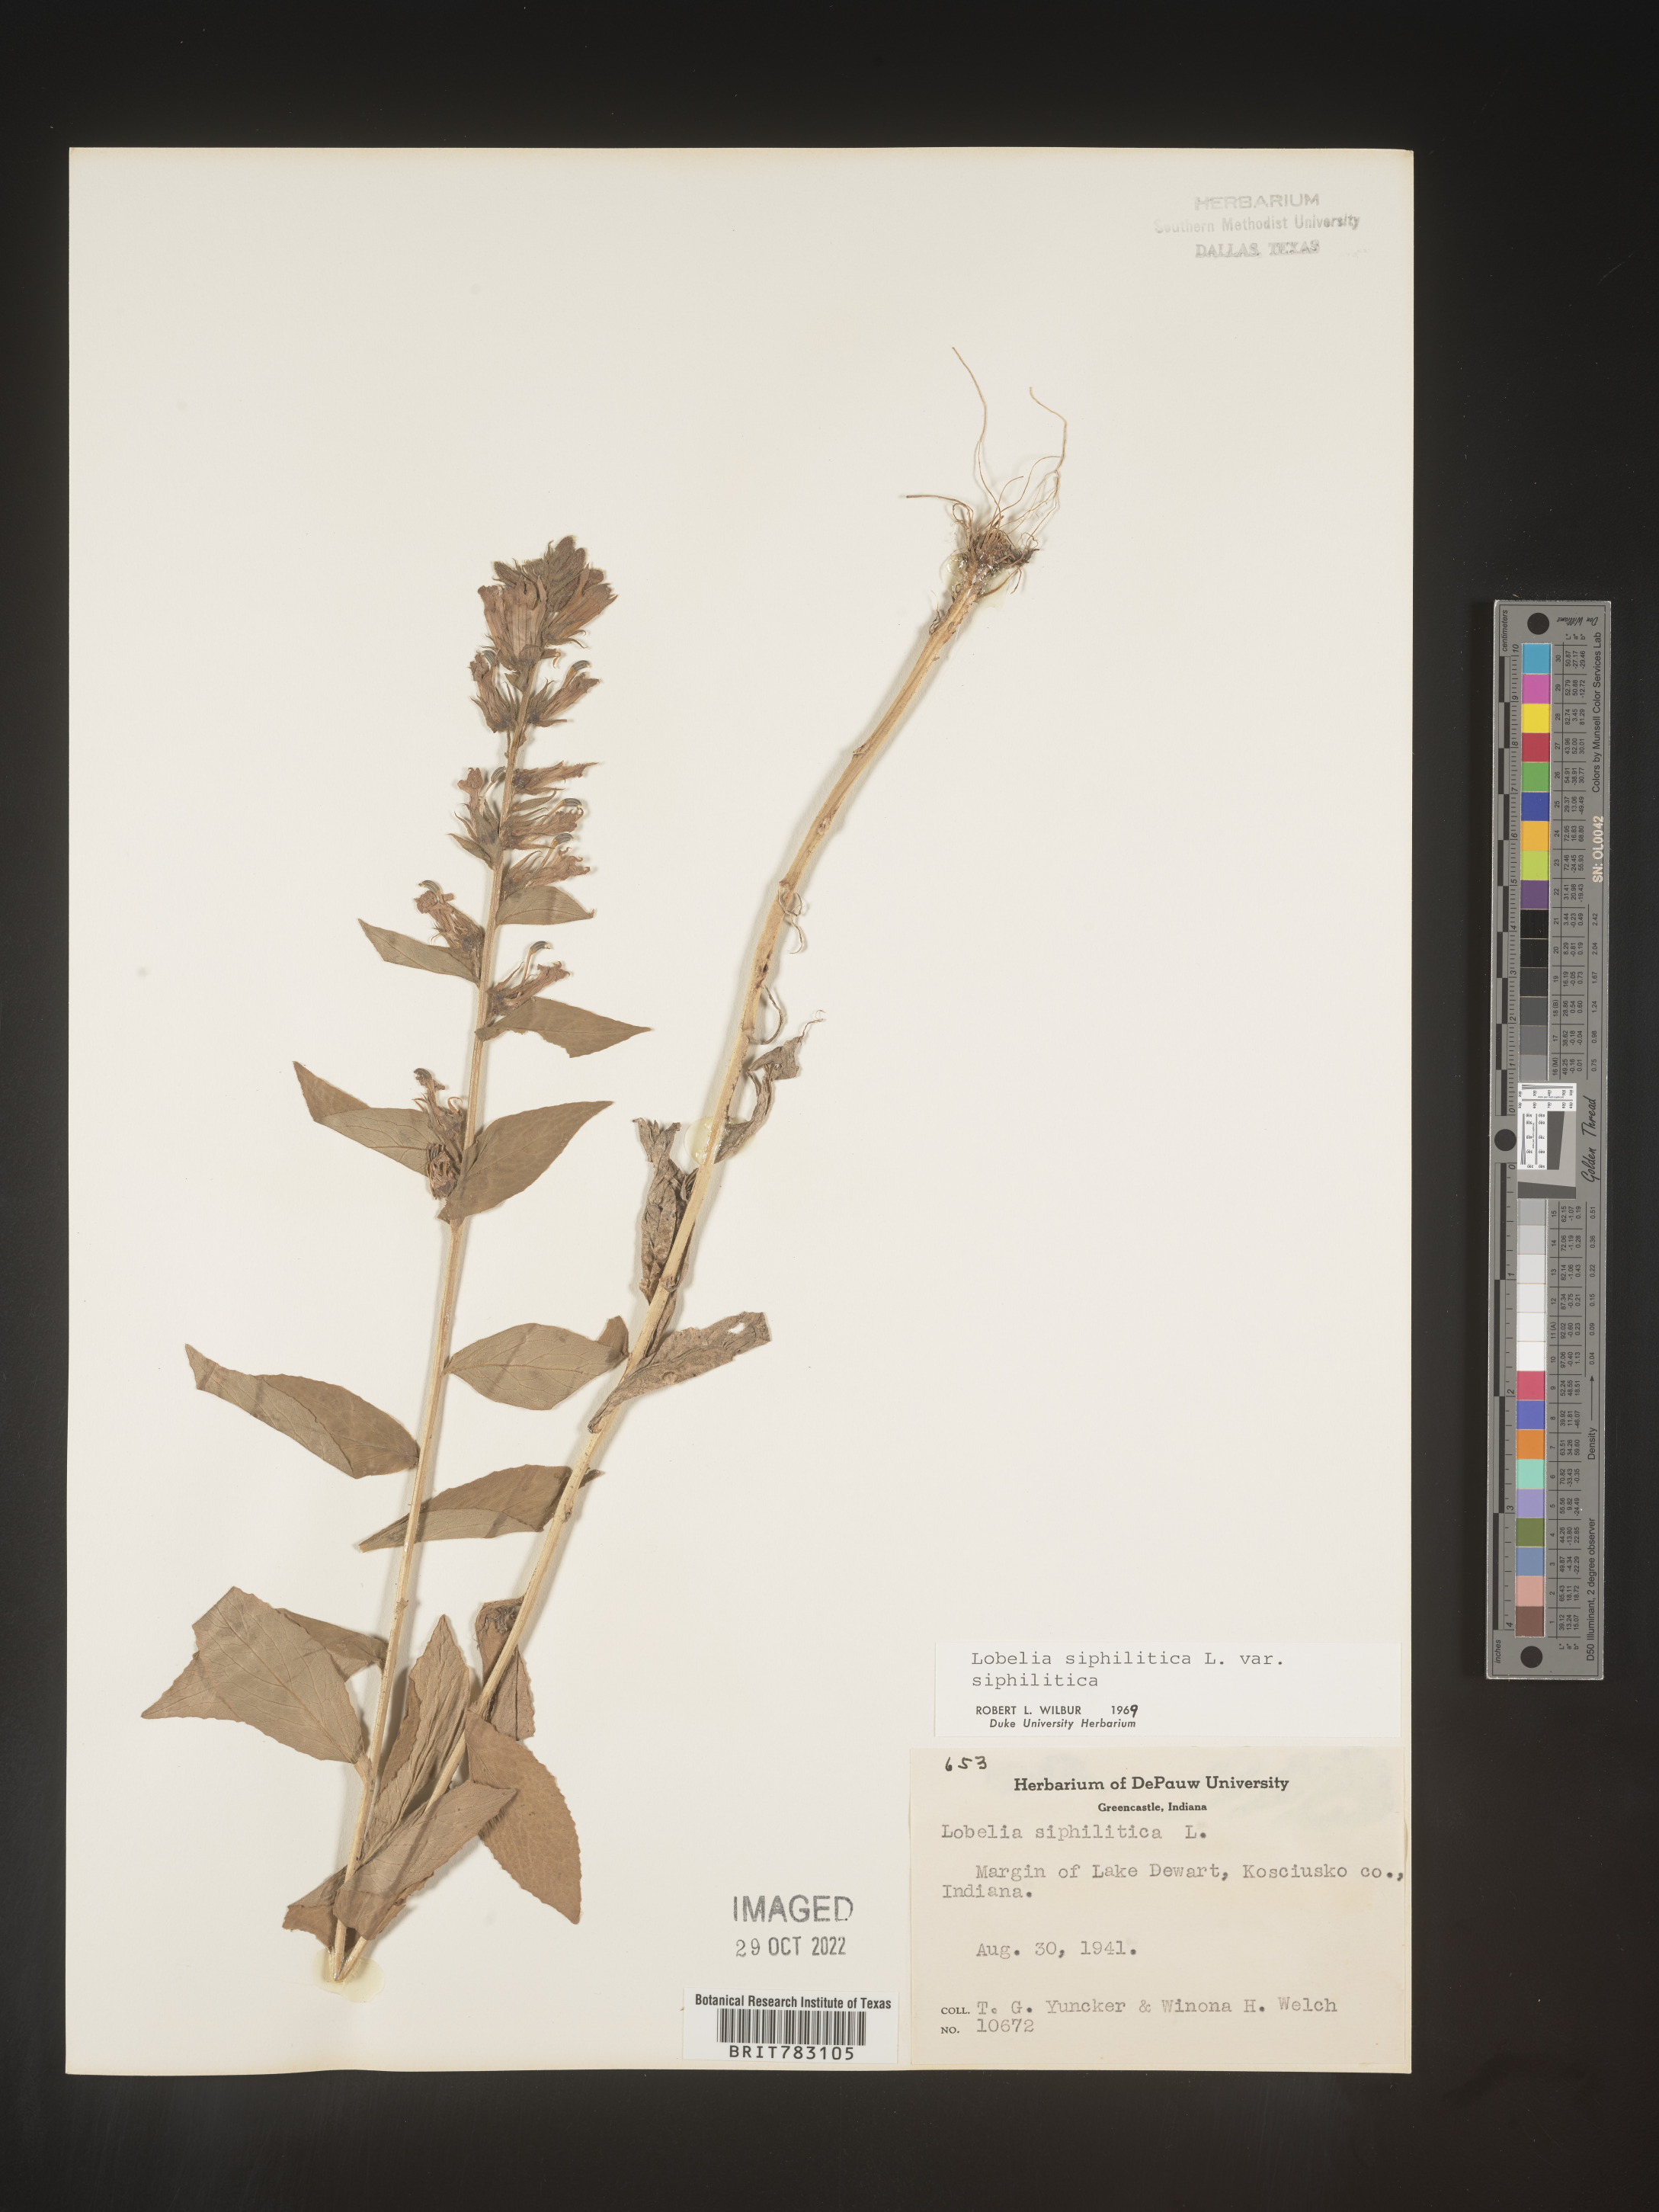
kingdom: Plantae
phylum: Tracheophyta
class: Magnoliopsida
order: Asterales
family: Campanulaceae
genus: Lobelia
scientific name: Lobelia siphilitica
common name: Great lobelia
